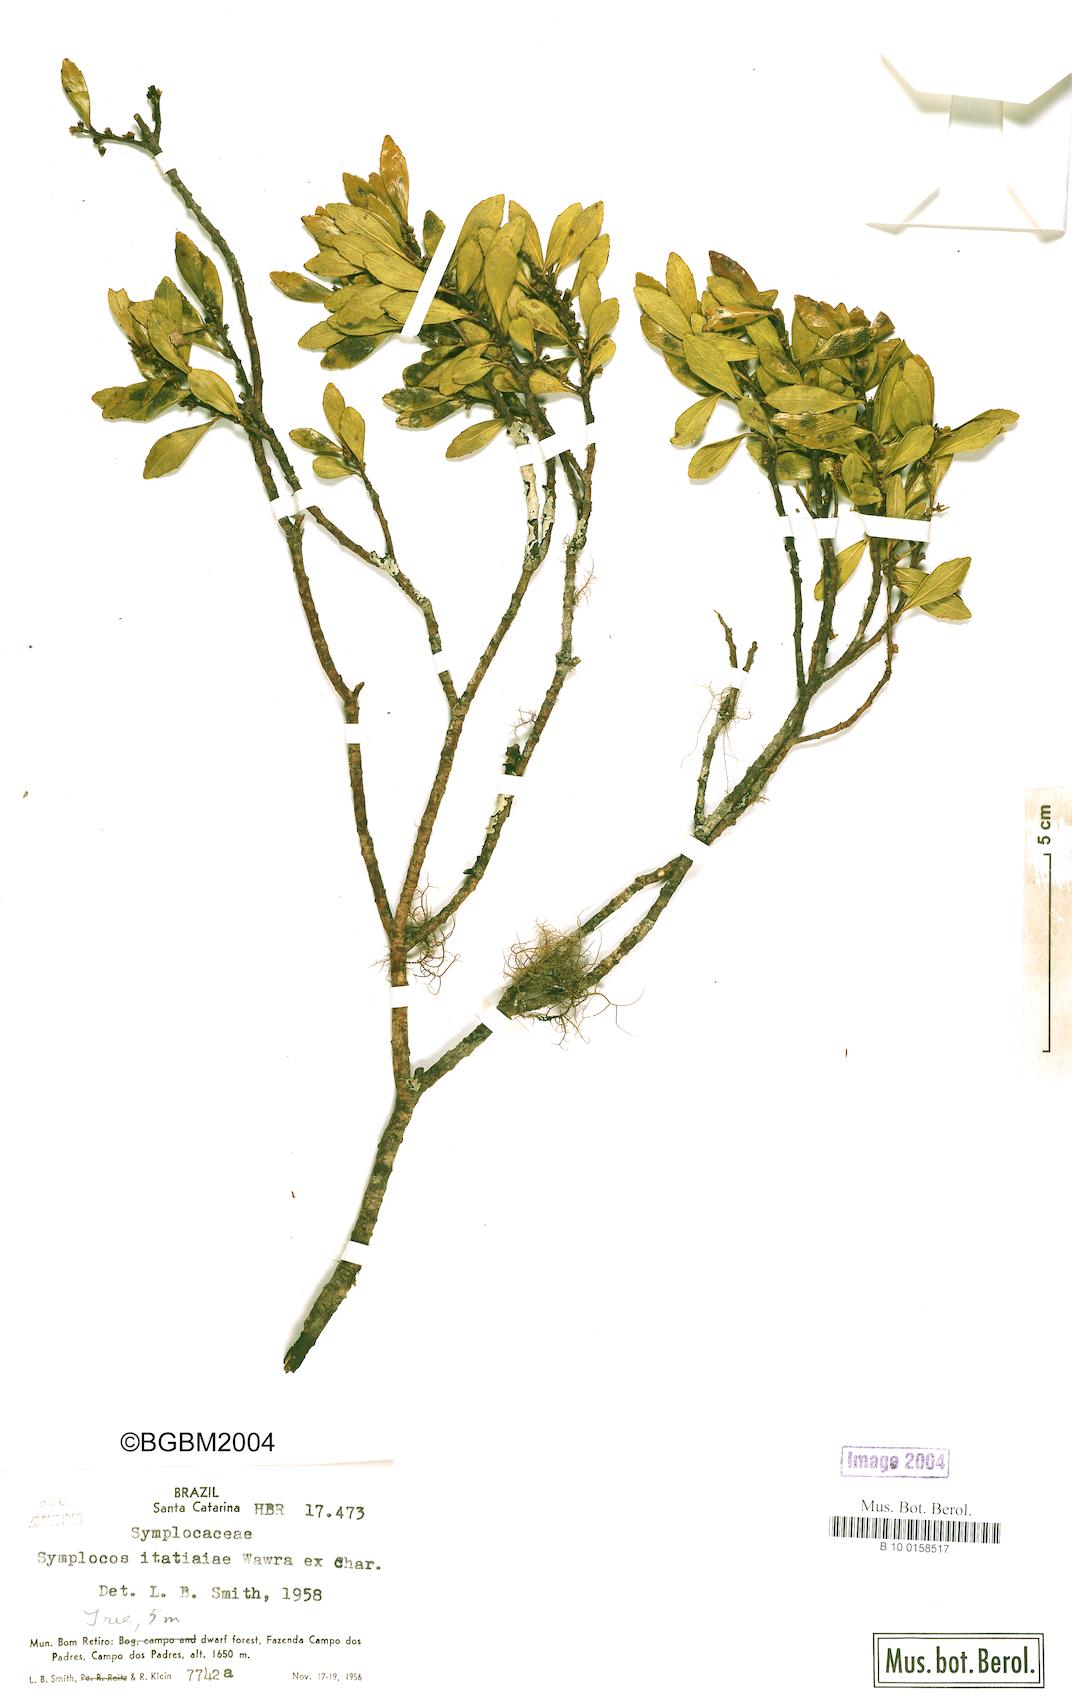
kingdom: Plantae
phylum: Tracheophyta
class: Magnoliopsida
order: Ericales
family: Symplocaceae
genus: Symplocos
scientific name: Symplocos pentandra
